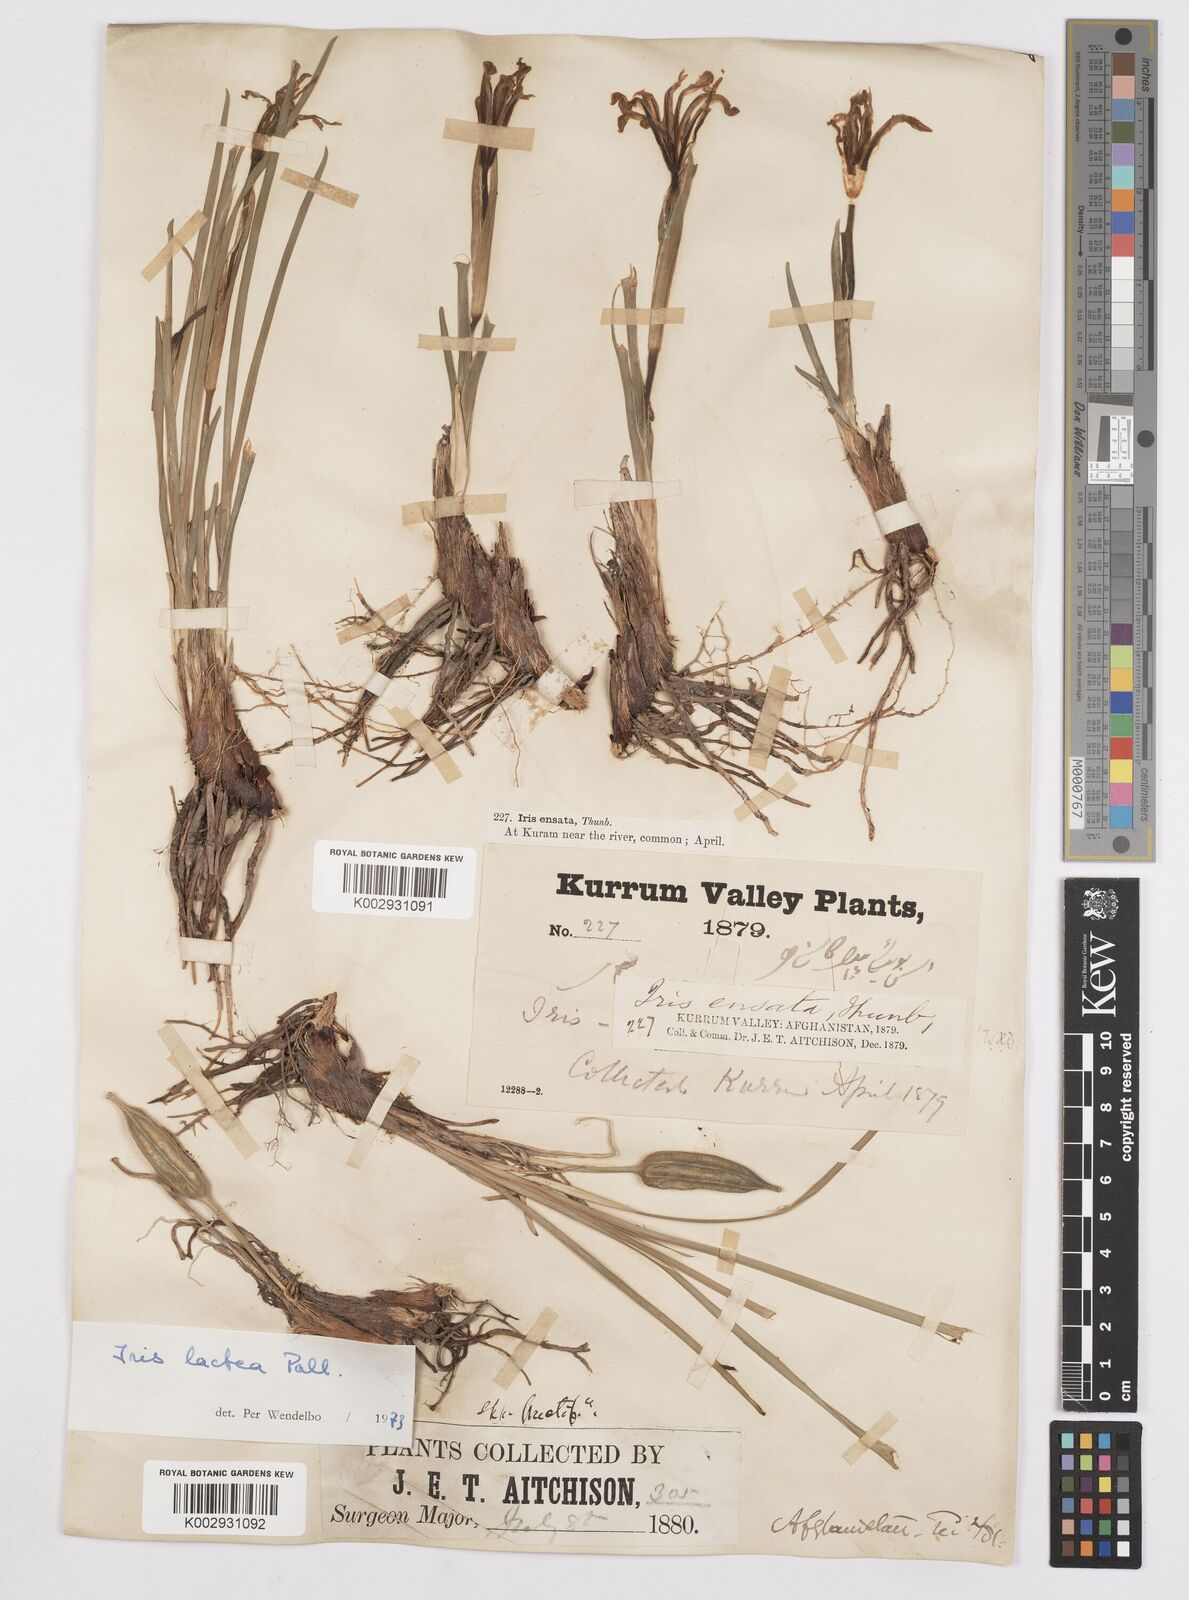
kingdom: Plantae
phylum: Tracheophyta
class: Liliopsida
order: Asparagales
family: Iridaceae
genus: Iris
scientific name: Iris lactea
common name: White-flower chinese iris
